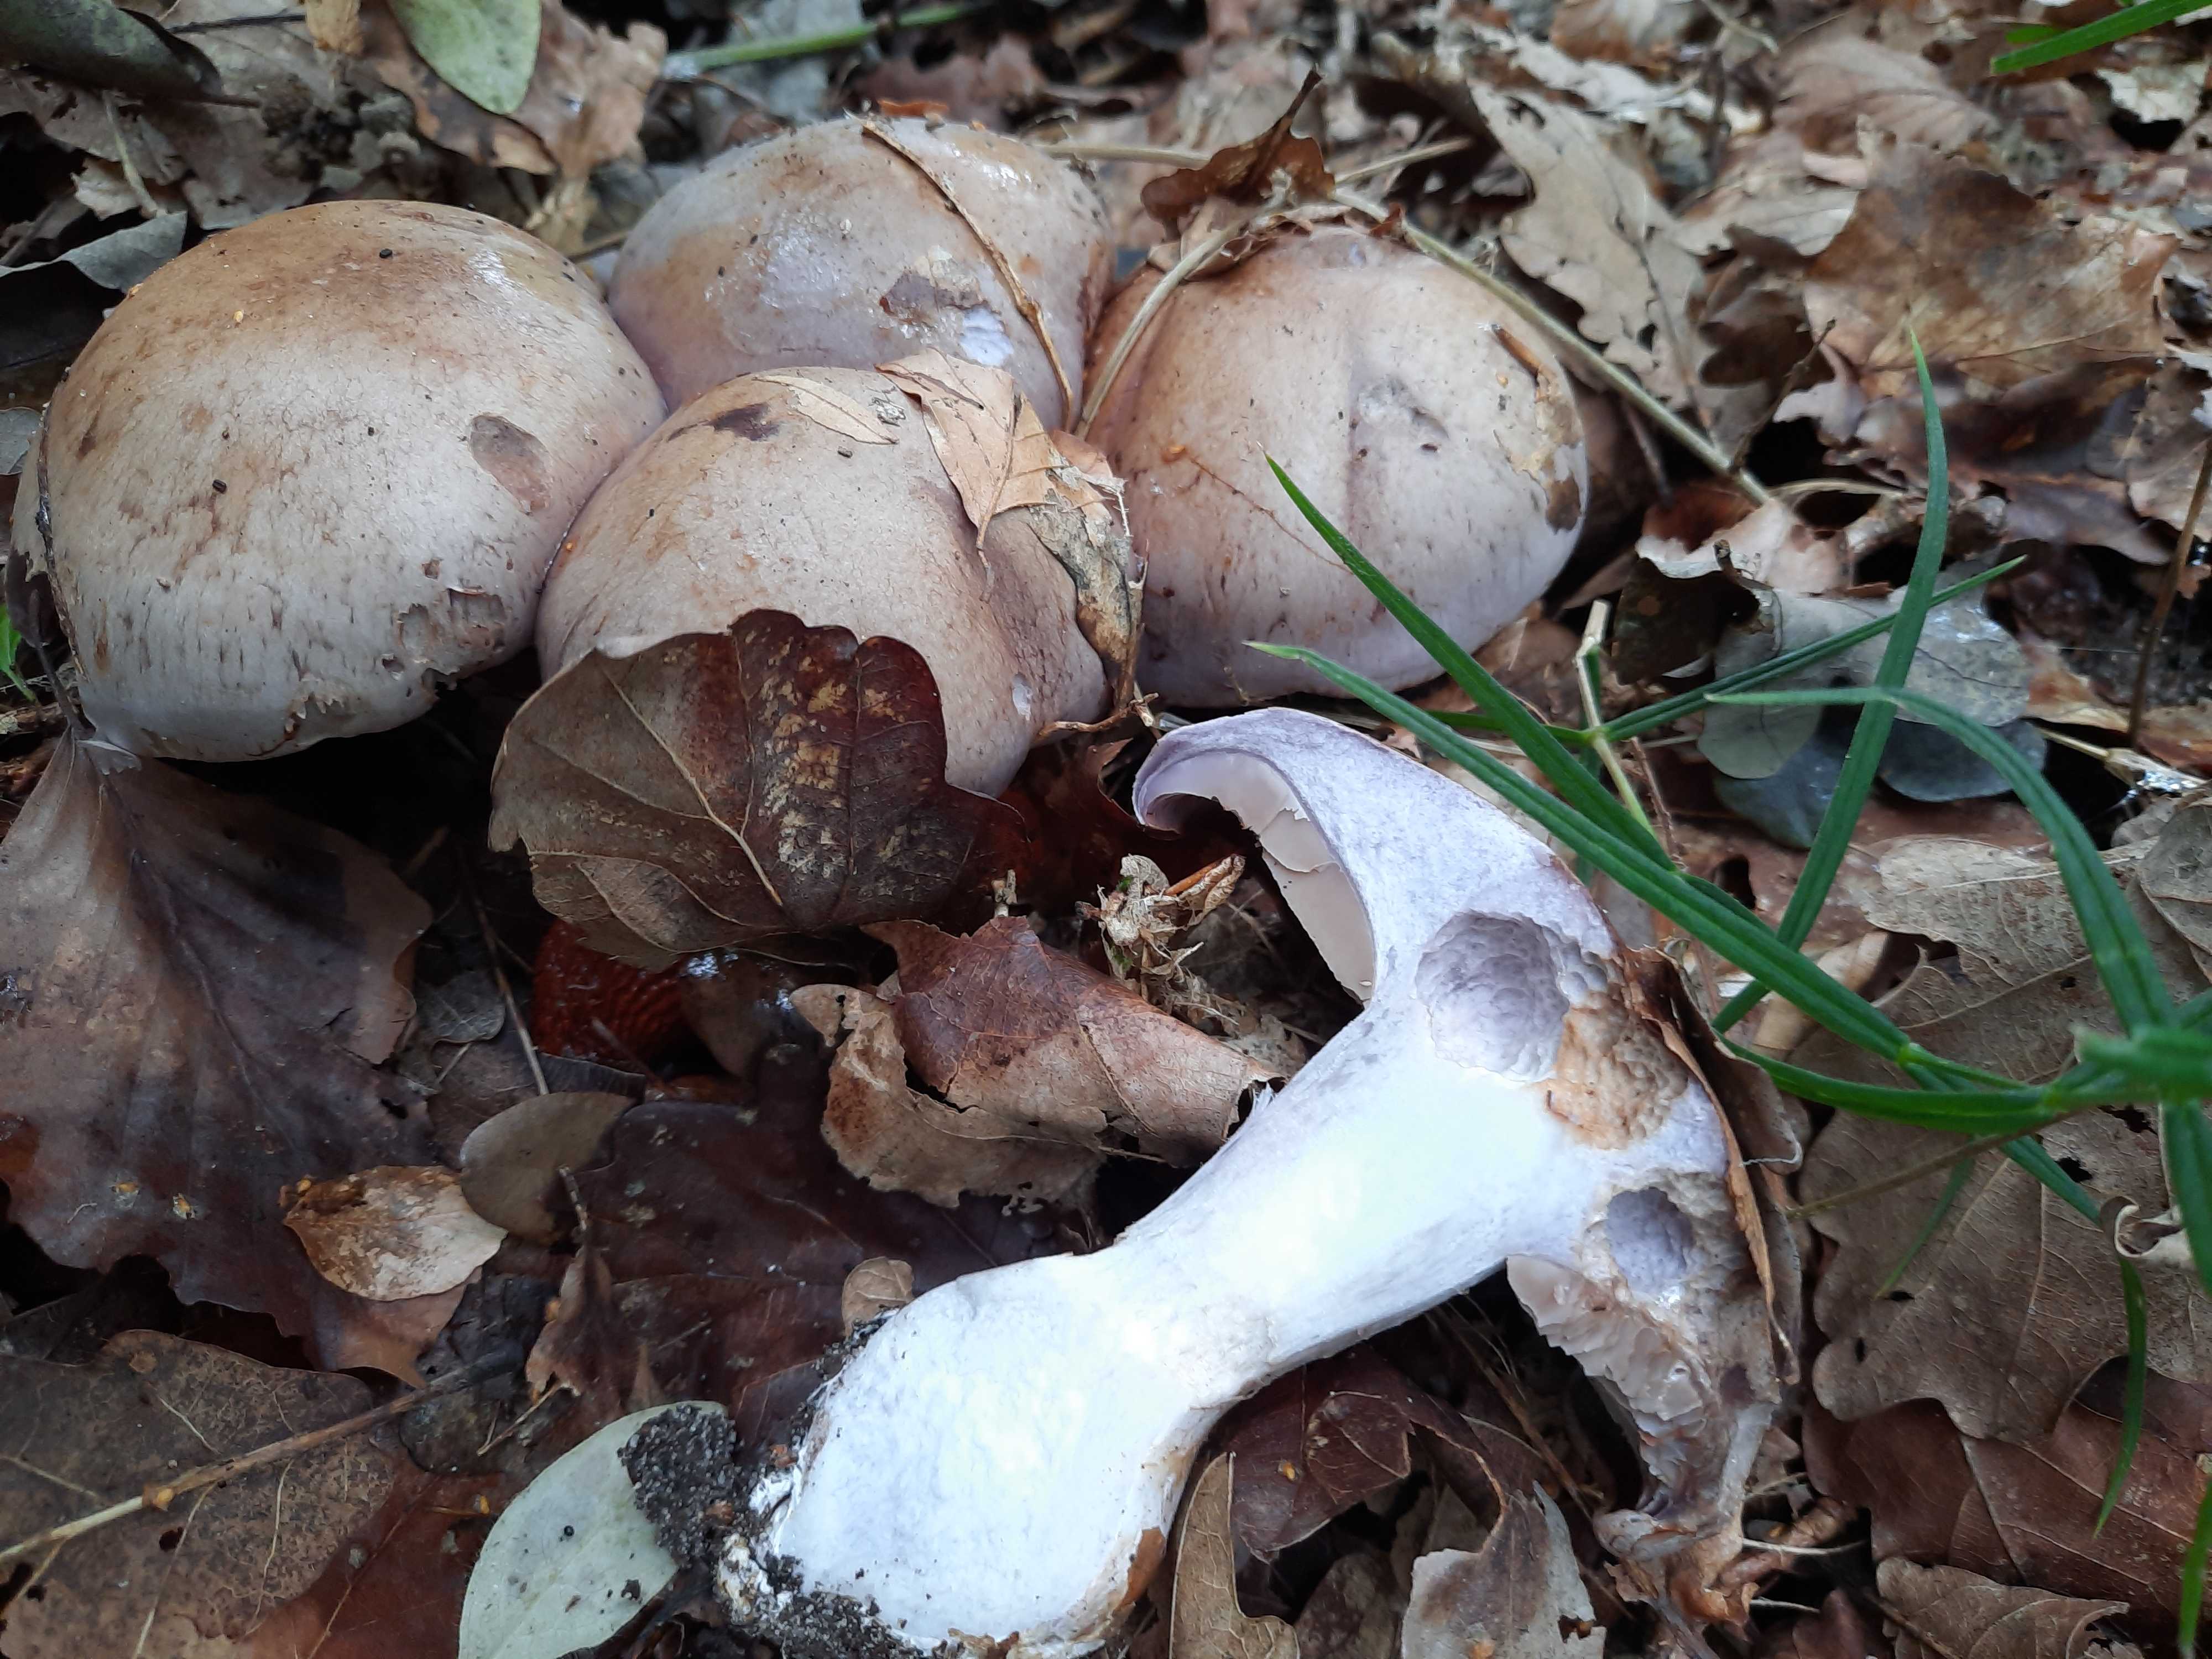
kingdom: Fungi
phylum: Basidiomycota
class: Agaricomycetes
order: Agaricales
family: Cortinariaceae
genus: Cortinarius
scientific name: Cortinarius largus
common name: violetrandet slørhat
